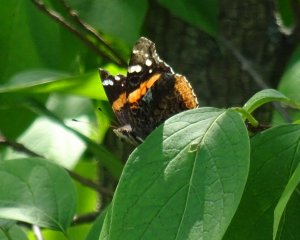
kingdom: Animalia
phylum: Arthropoda
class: Insecta
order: Lepidoptera
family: Nymphalidae
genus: Vanessa
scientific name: Vanessa atalanta
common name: Red Admiral
